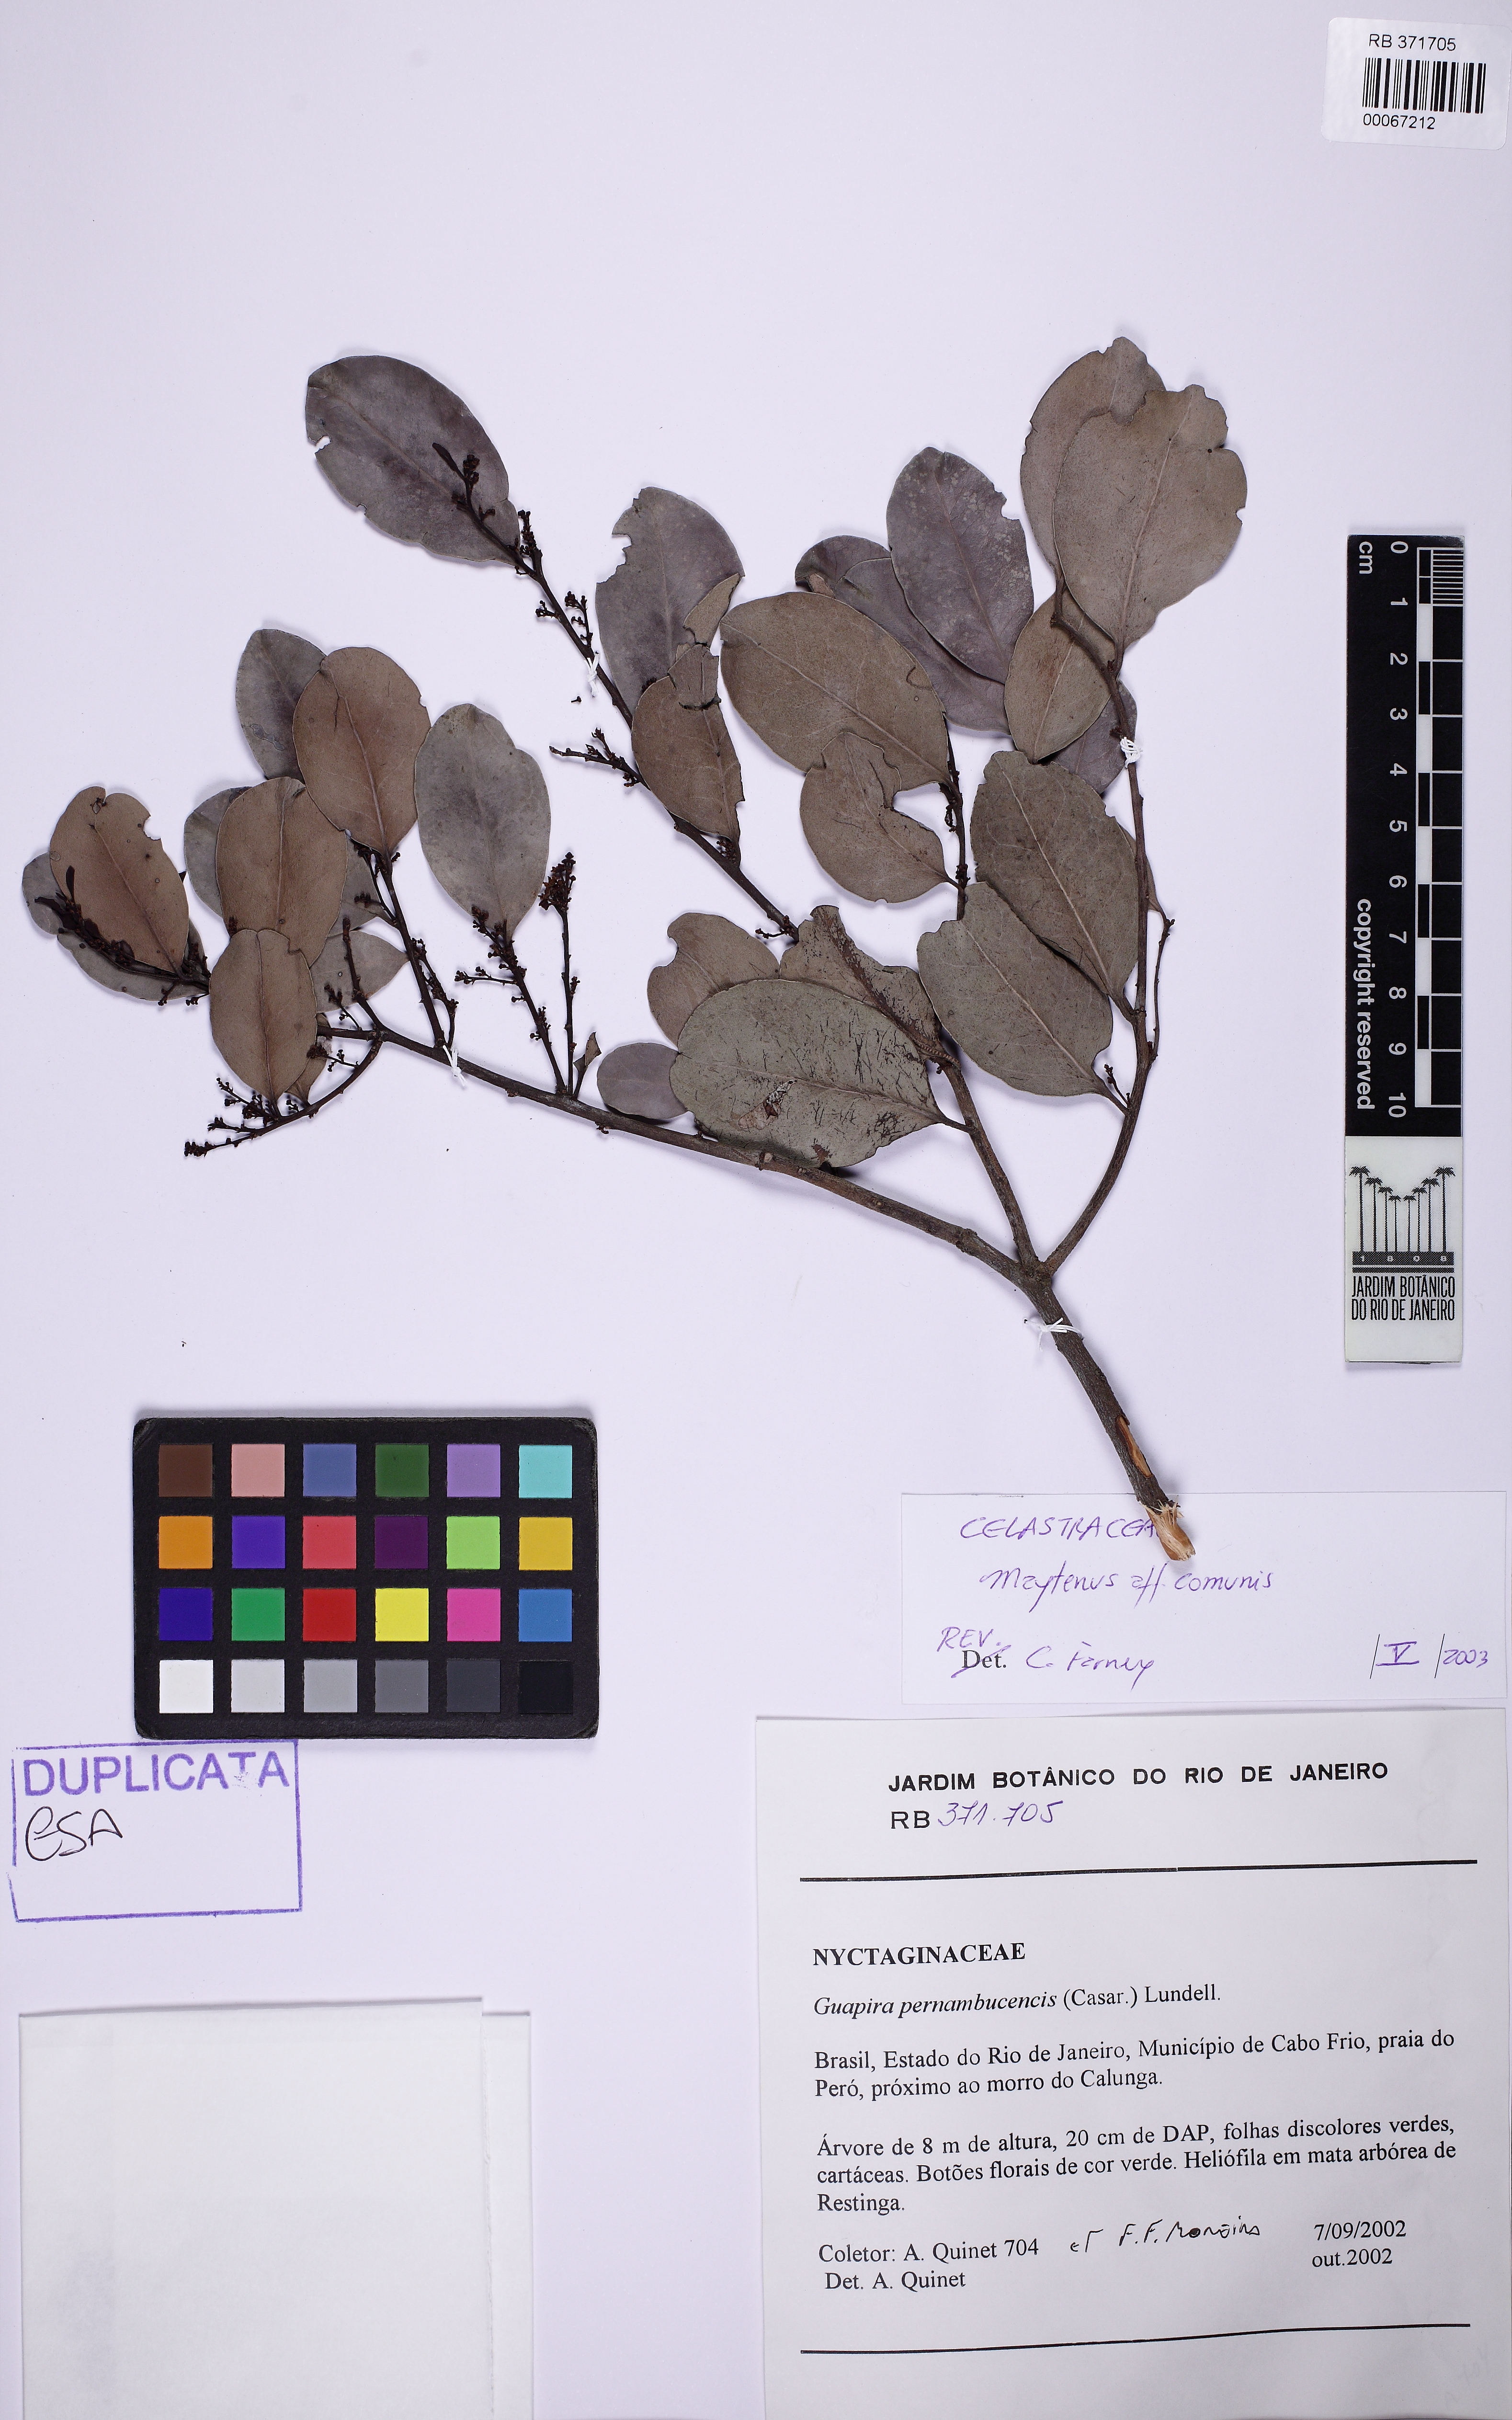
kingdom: Plantae
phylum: Tracheophyta
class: Magnoliopsida
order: Celastrales
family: Celastraceae
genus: Monteverdia
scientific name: Monteverdia obtusifolia
